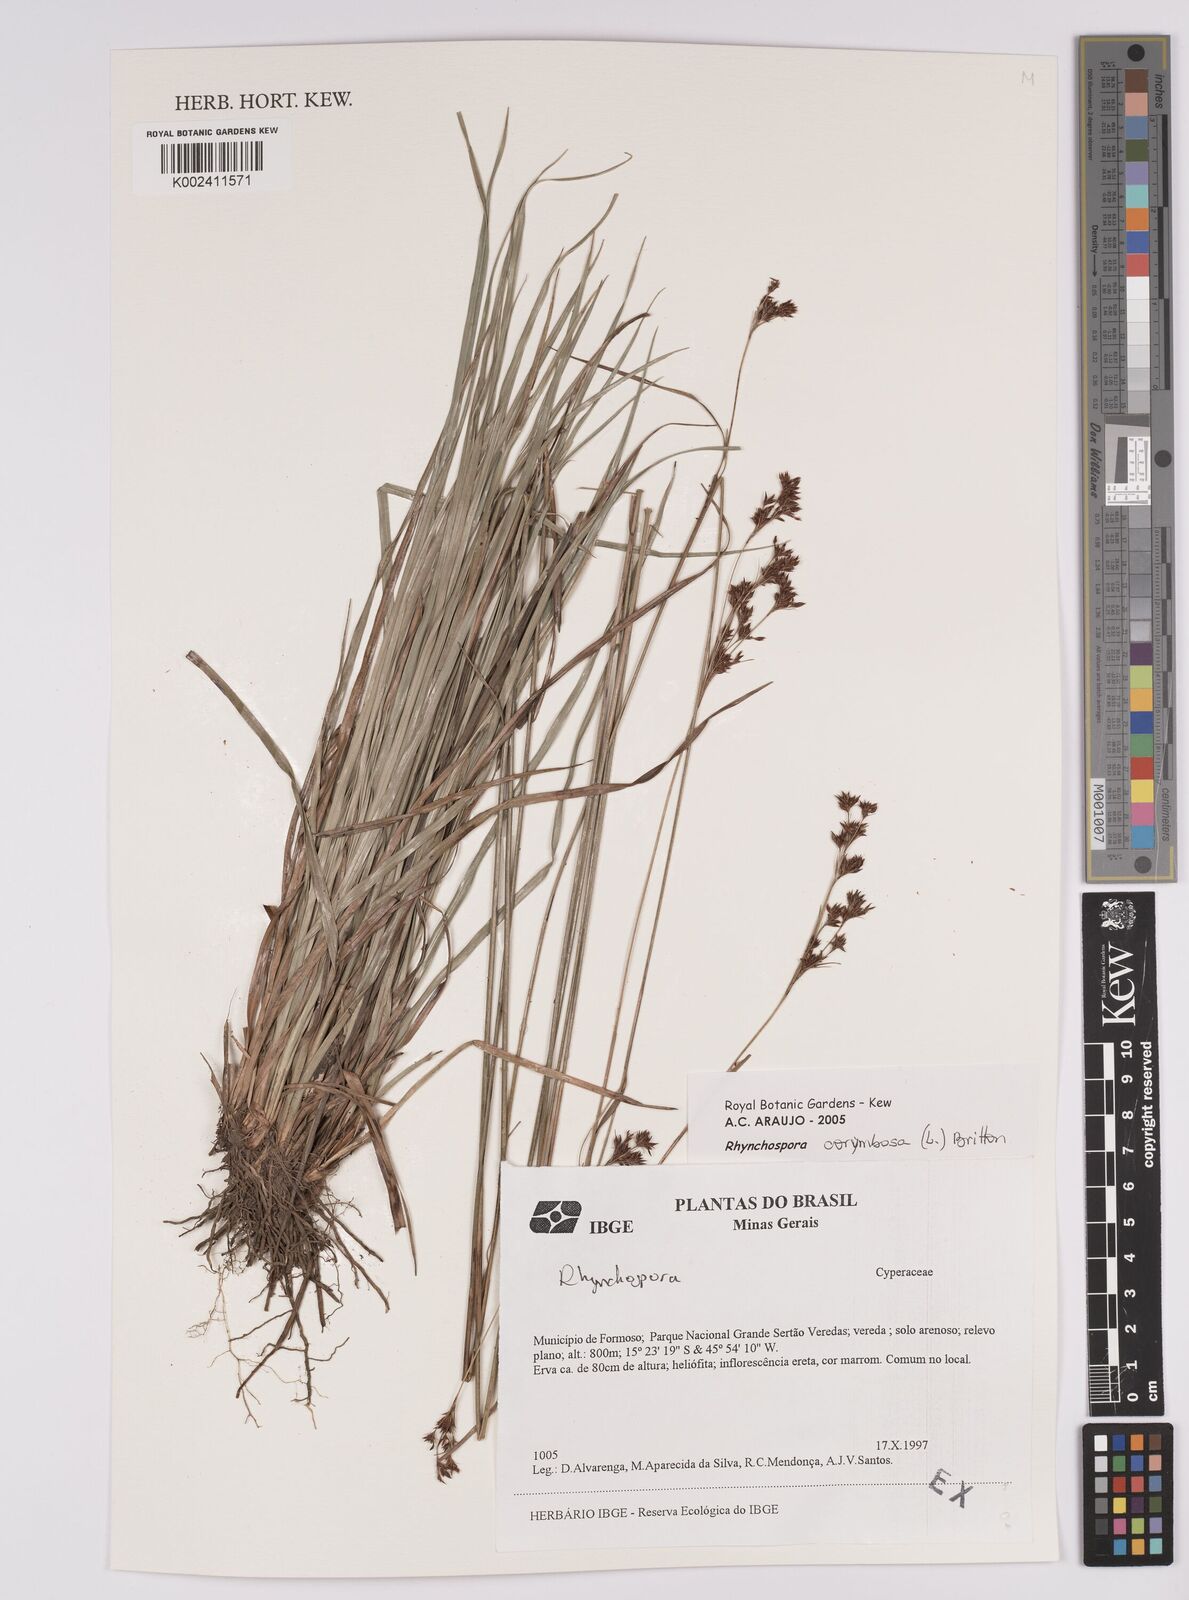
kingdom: Plantae
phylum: Tracheophyta
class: Liliopsida
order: Poales
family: Cyperaceae
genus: Rhynchospora
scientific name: Rhynchospora corymbosa
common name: Golden beak sedge
